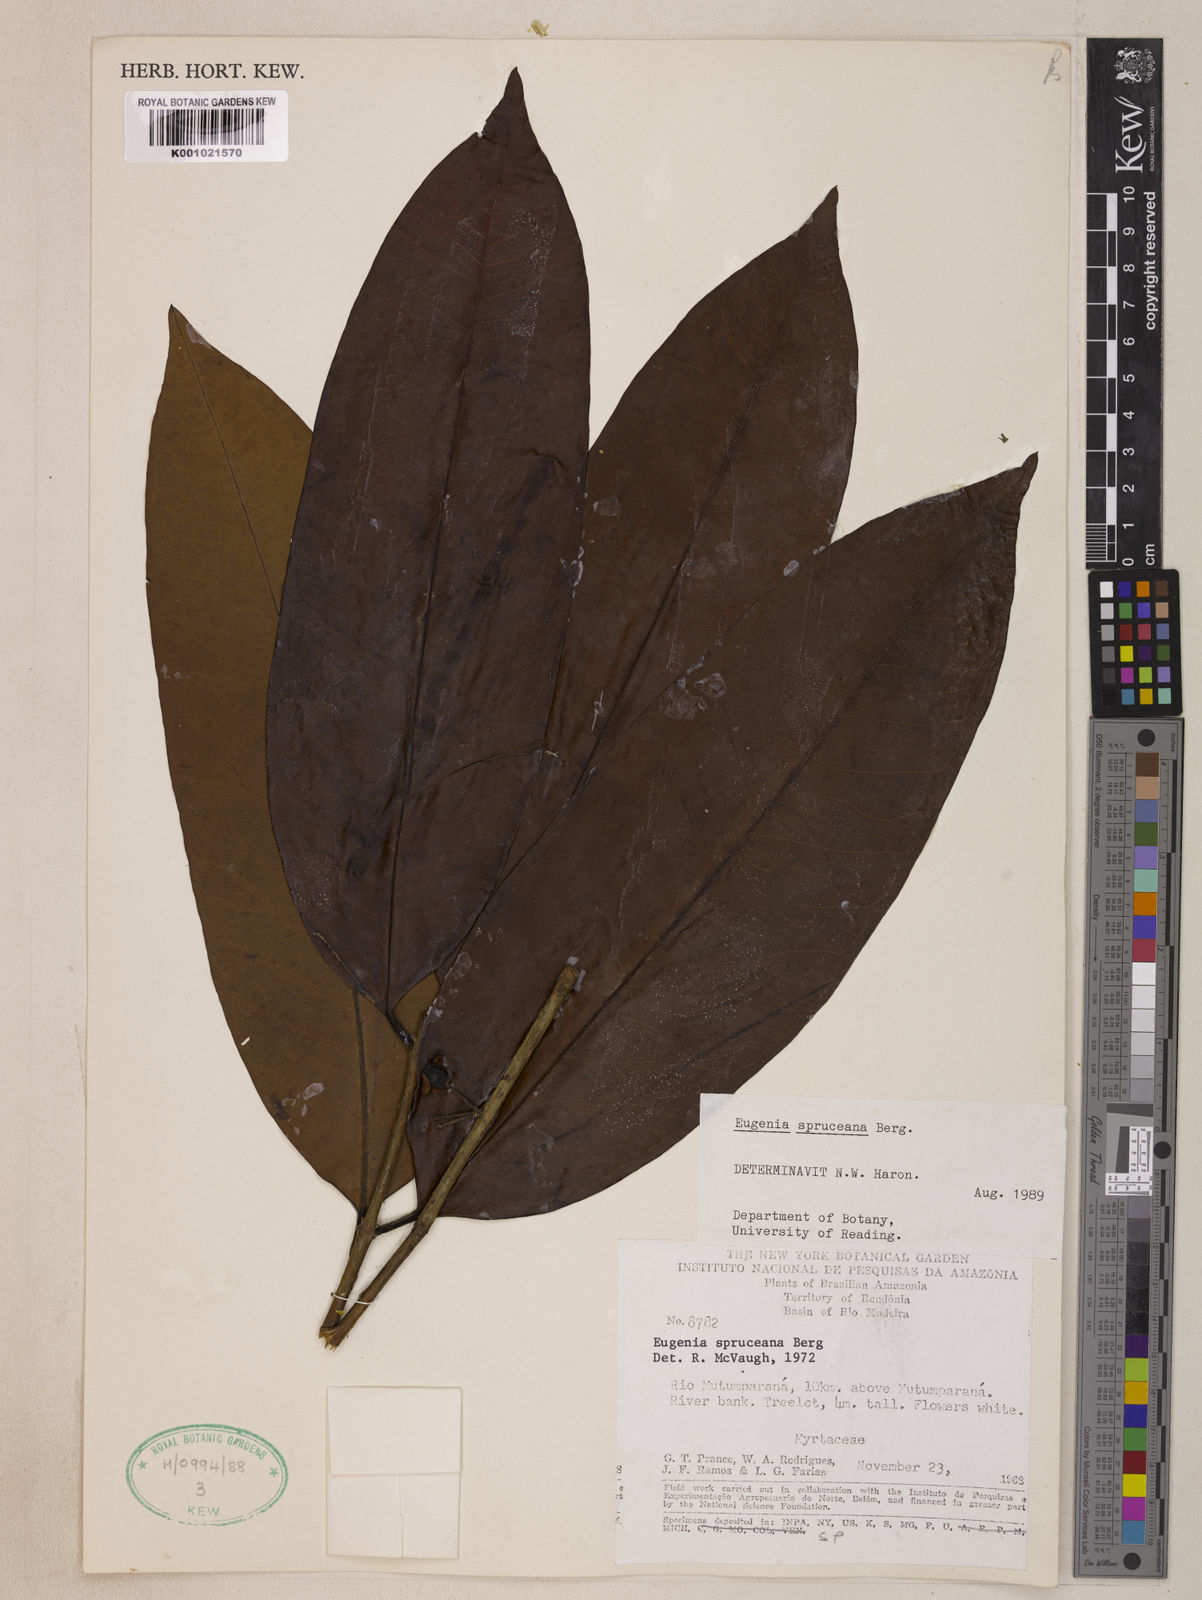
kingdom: Plantae
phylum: Tracheophyta
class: Magnoliopsida
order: Myrtales
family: Myrtaceae
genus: Eugenia
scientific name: Eugenia spruceana
